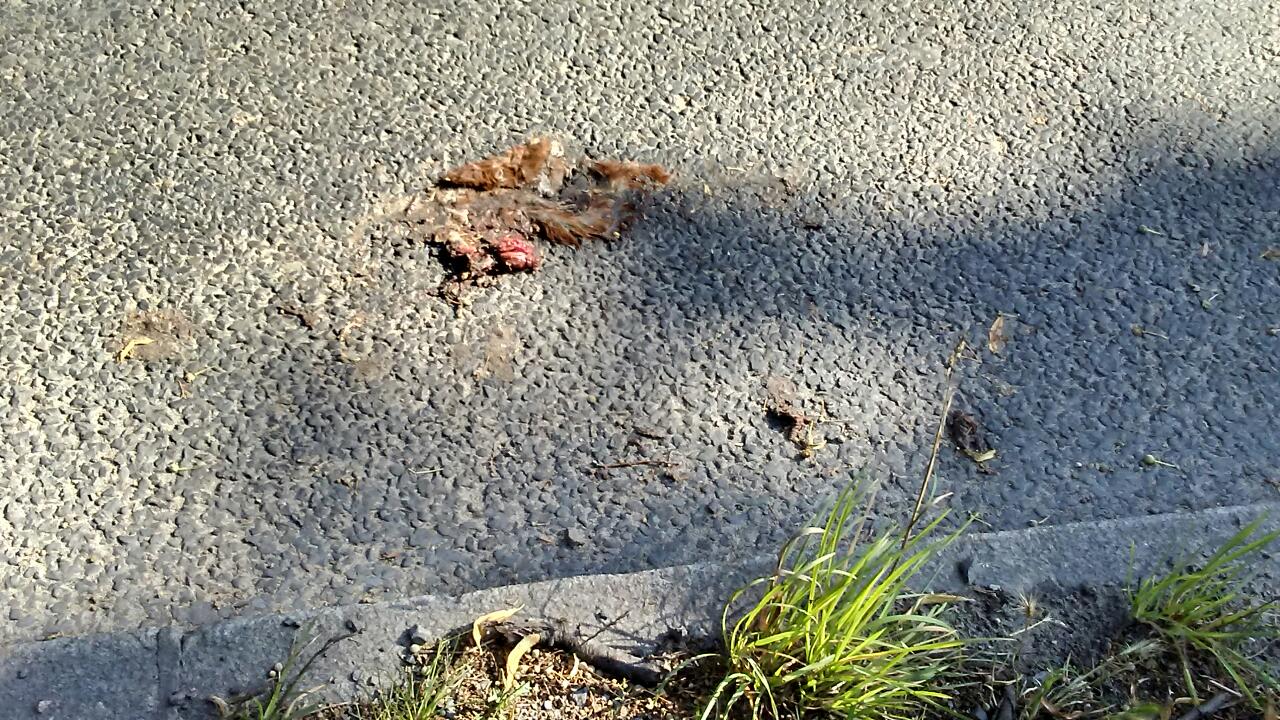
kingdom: Animalia
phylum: Chordata
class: Mammalia
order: Rodentia
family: Sciuridae
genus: Sciurus
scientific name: Sciurus vulgaris
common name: Eurasian red squirrel
